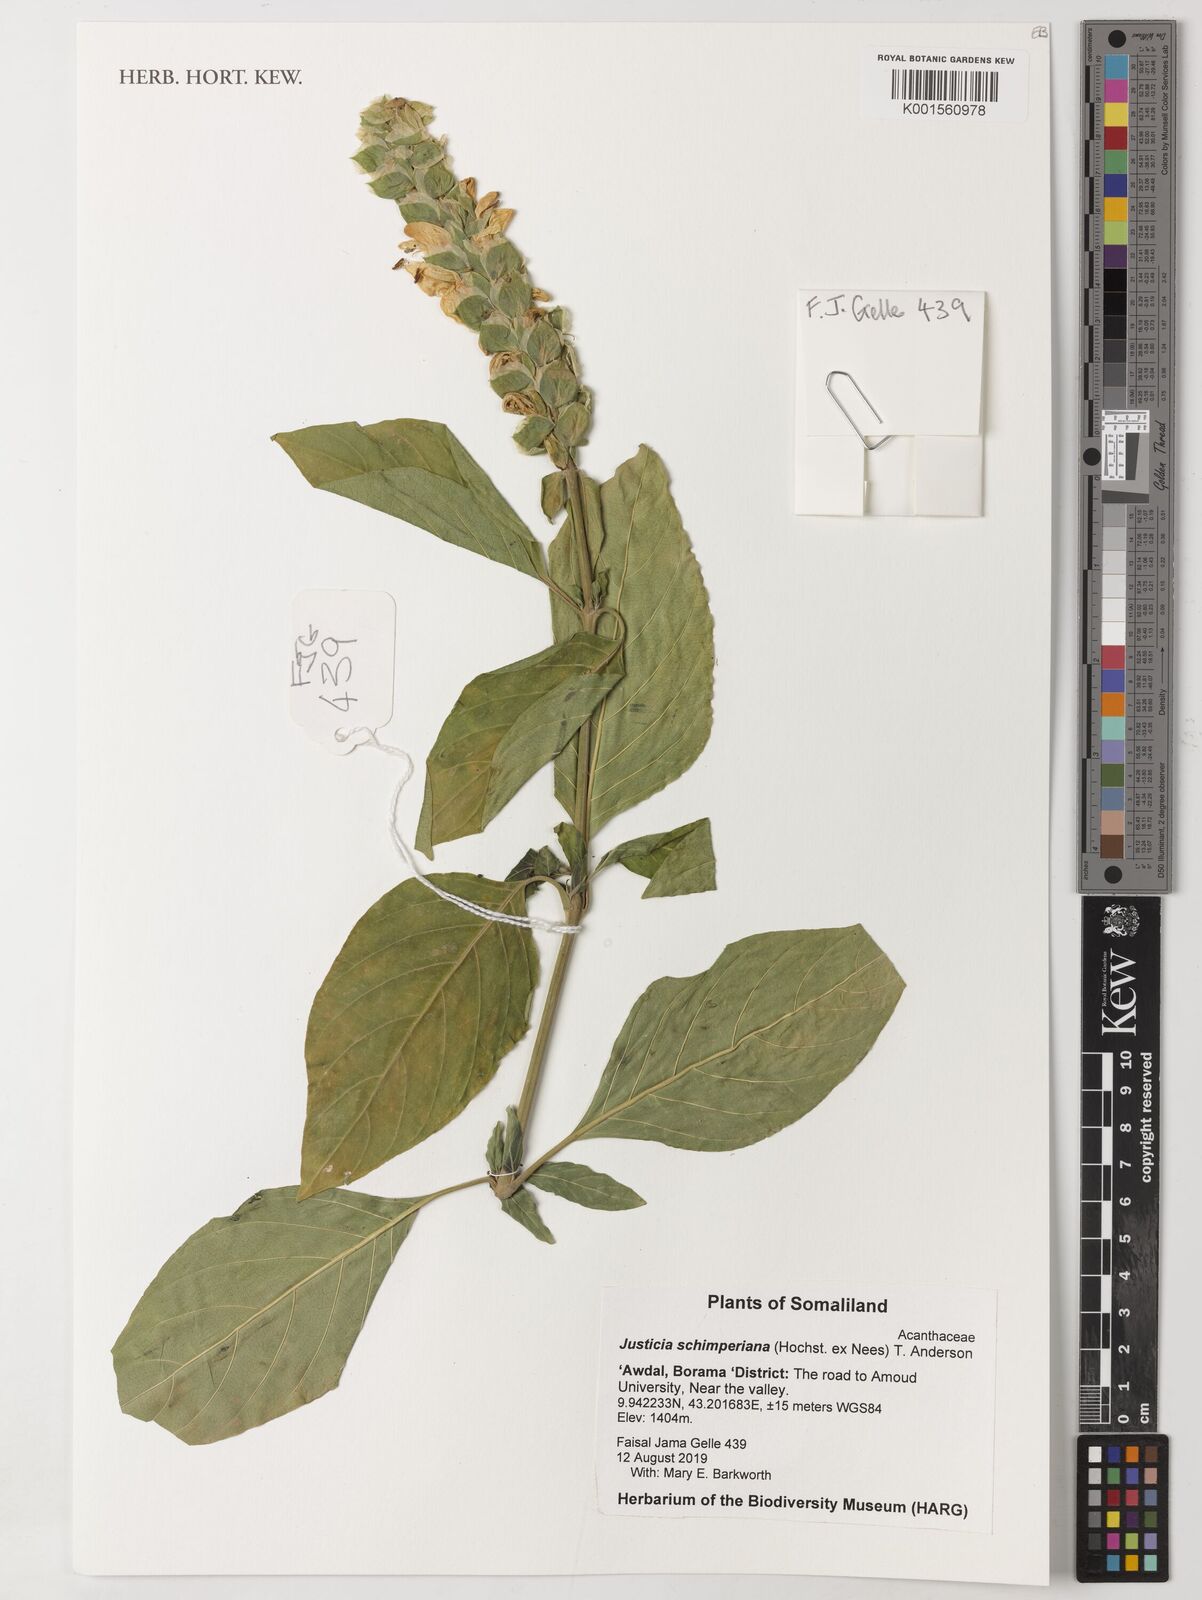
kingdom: Plantae
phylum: Tracheophyta
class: Magnoliopsida
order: Lamiales
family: Acanthaceae
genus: Justicia
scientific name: Justicia schimperiana
